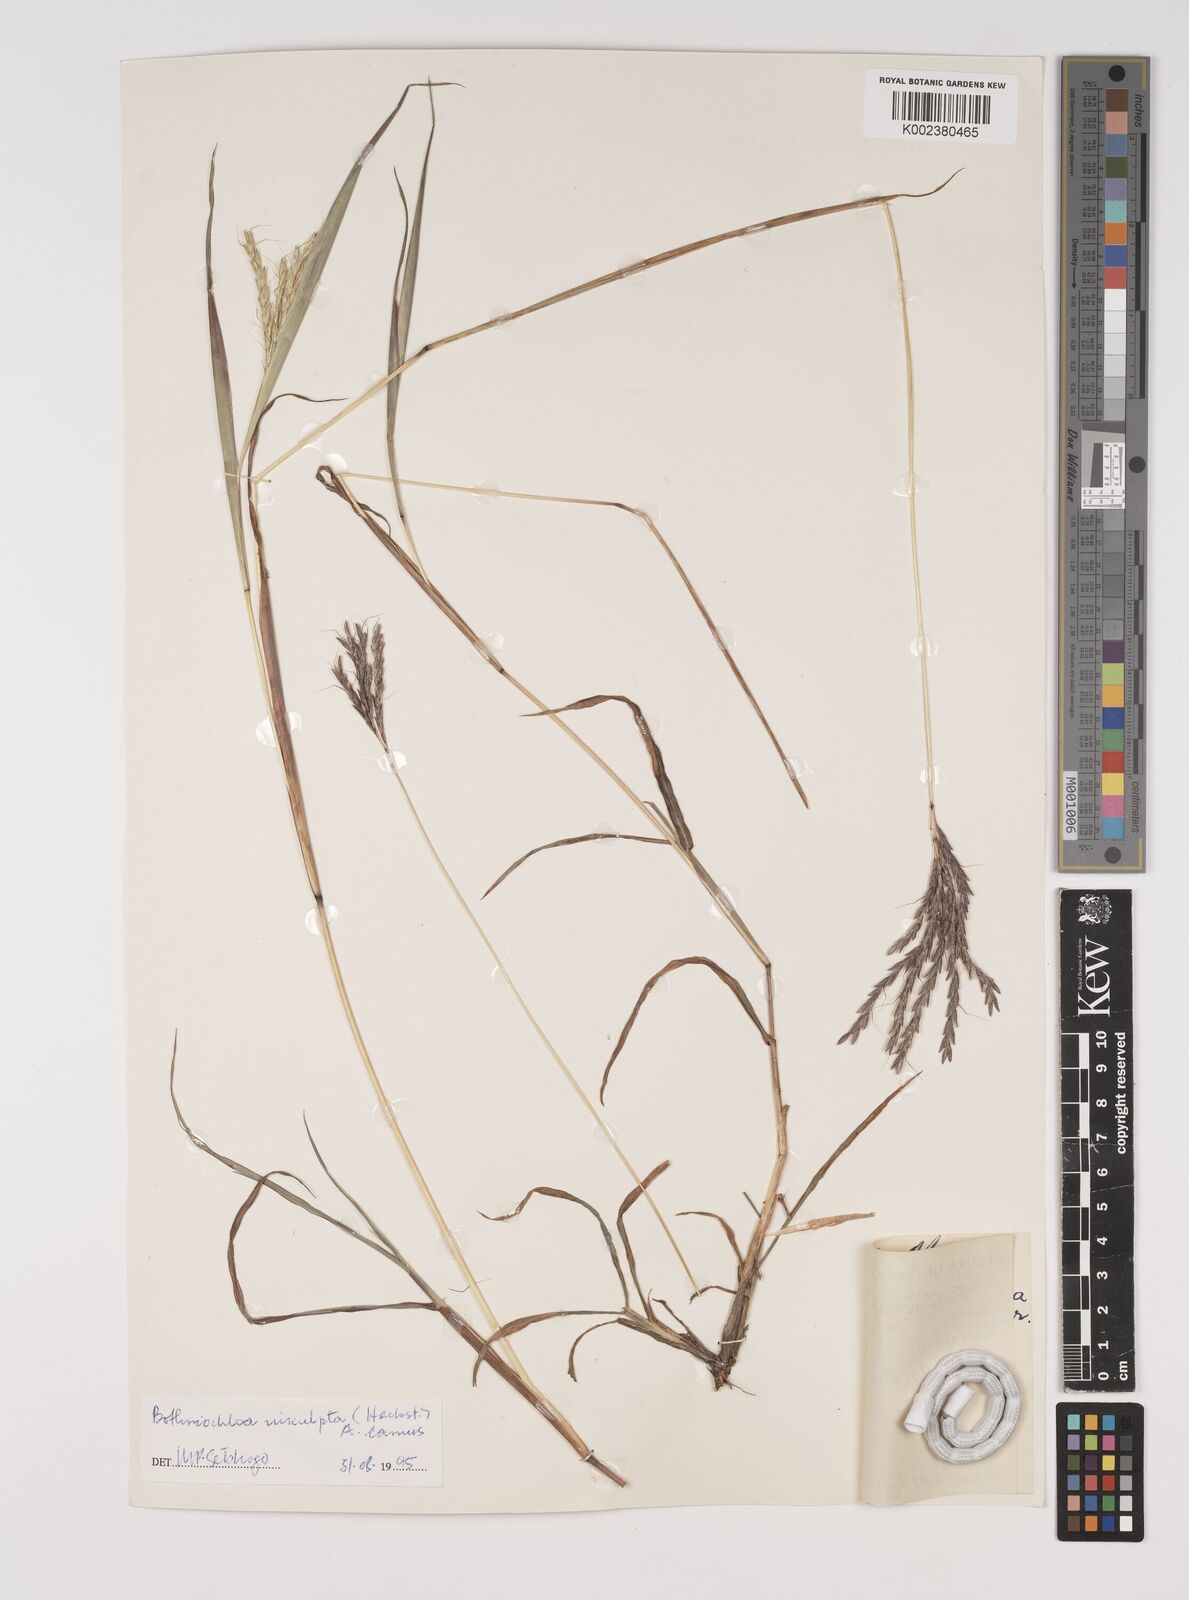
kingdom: Plantae
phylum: Tracheophyta
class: Liliopsida
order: Poales
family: Poaceae
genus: Bothriochloa
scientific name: Bothriochloa insculpta
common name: Creeping-bluegrass
